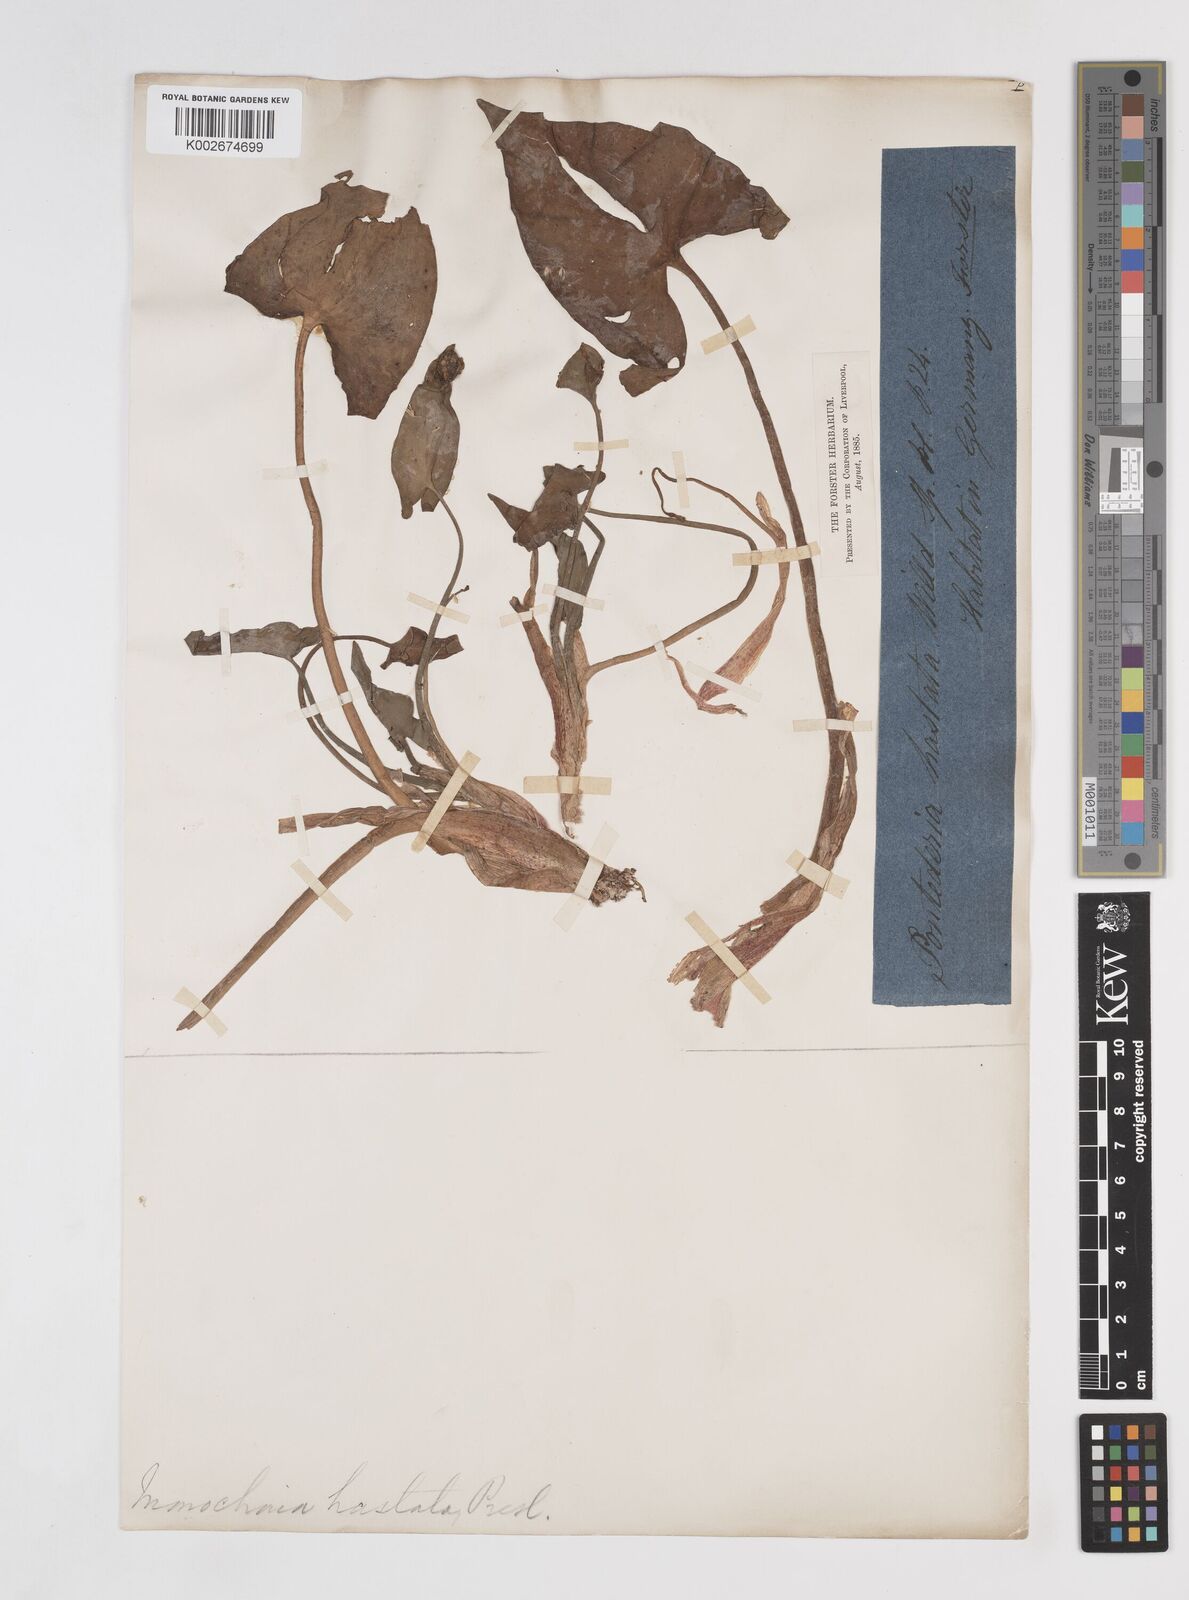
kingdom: Plantae
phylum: Tracheophyta
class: Liliopsida
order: Commelinales
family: Pontederiaceae
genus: Pontederia
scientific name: Pontederia hastata
